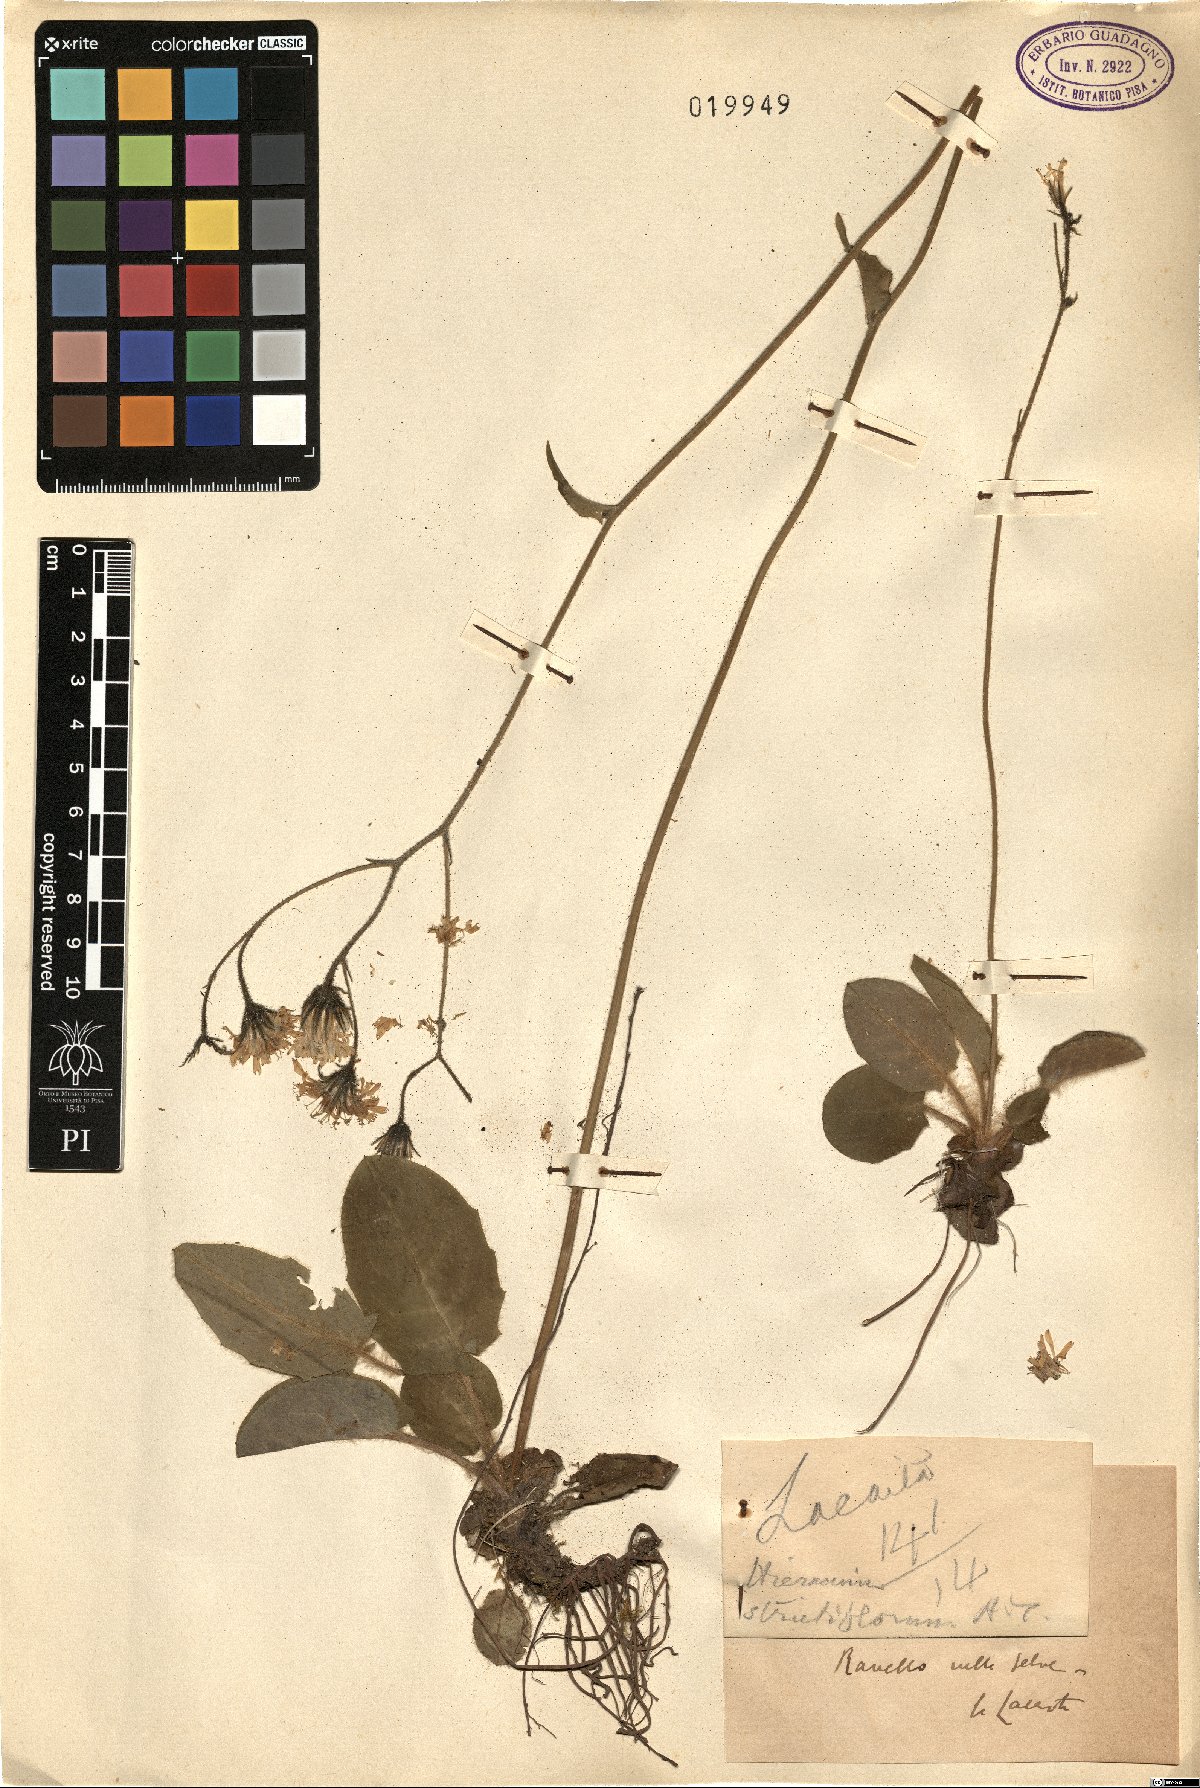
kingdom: Plantae
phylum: Tracheophyta
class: Magnoliopsida
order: Asterales
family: Asteraceae
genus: Hieracium
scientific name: Hieracium glaucinum
